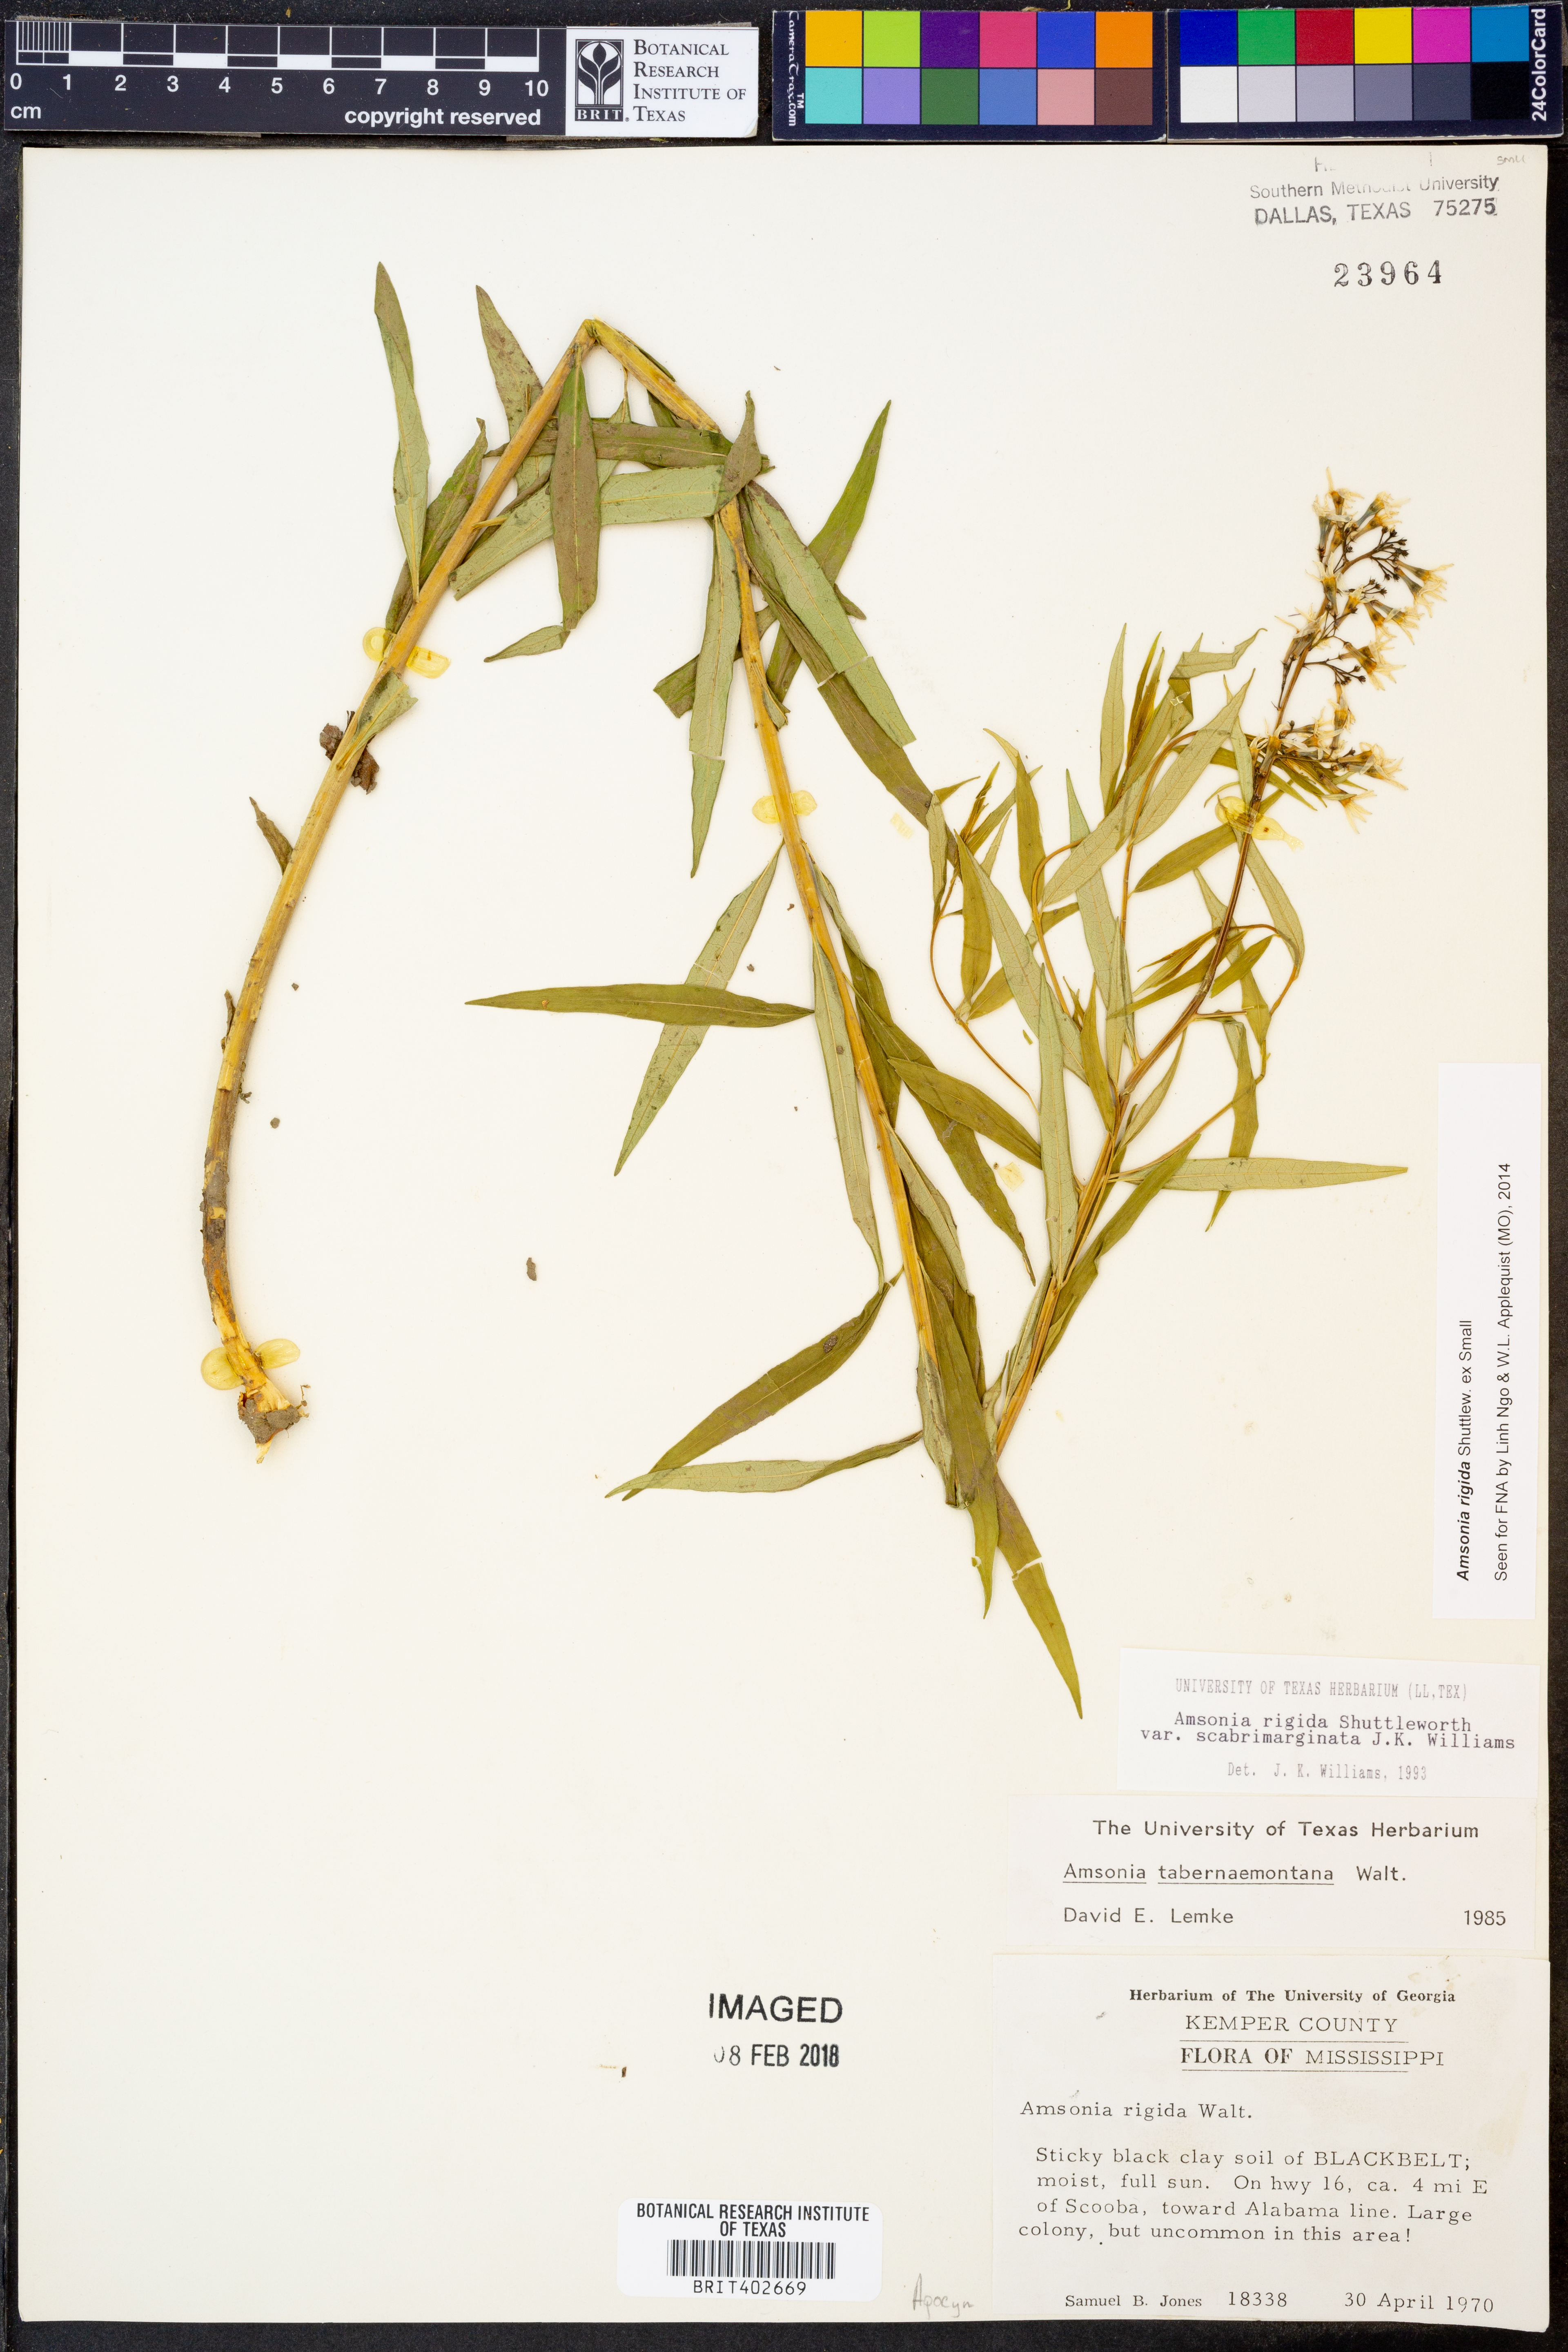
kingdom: Plantae
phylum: Tracheophyta
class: Magnoliopsida
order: Gentianales
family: Apocynaceae
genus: Amsonia
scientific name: Amsonia rigida
